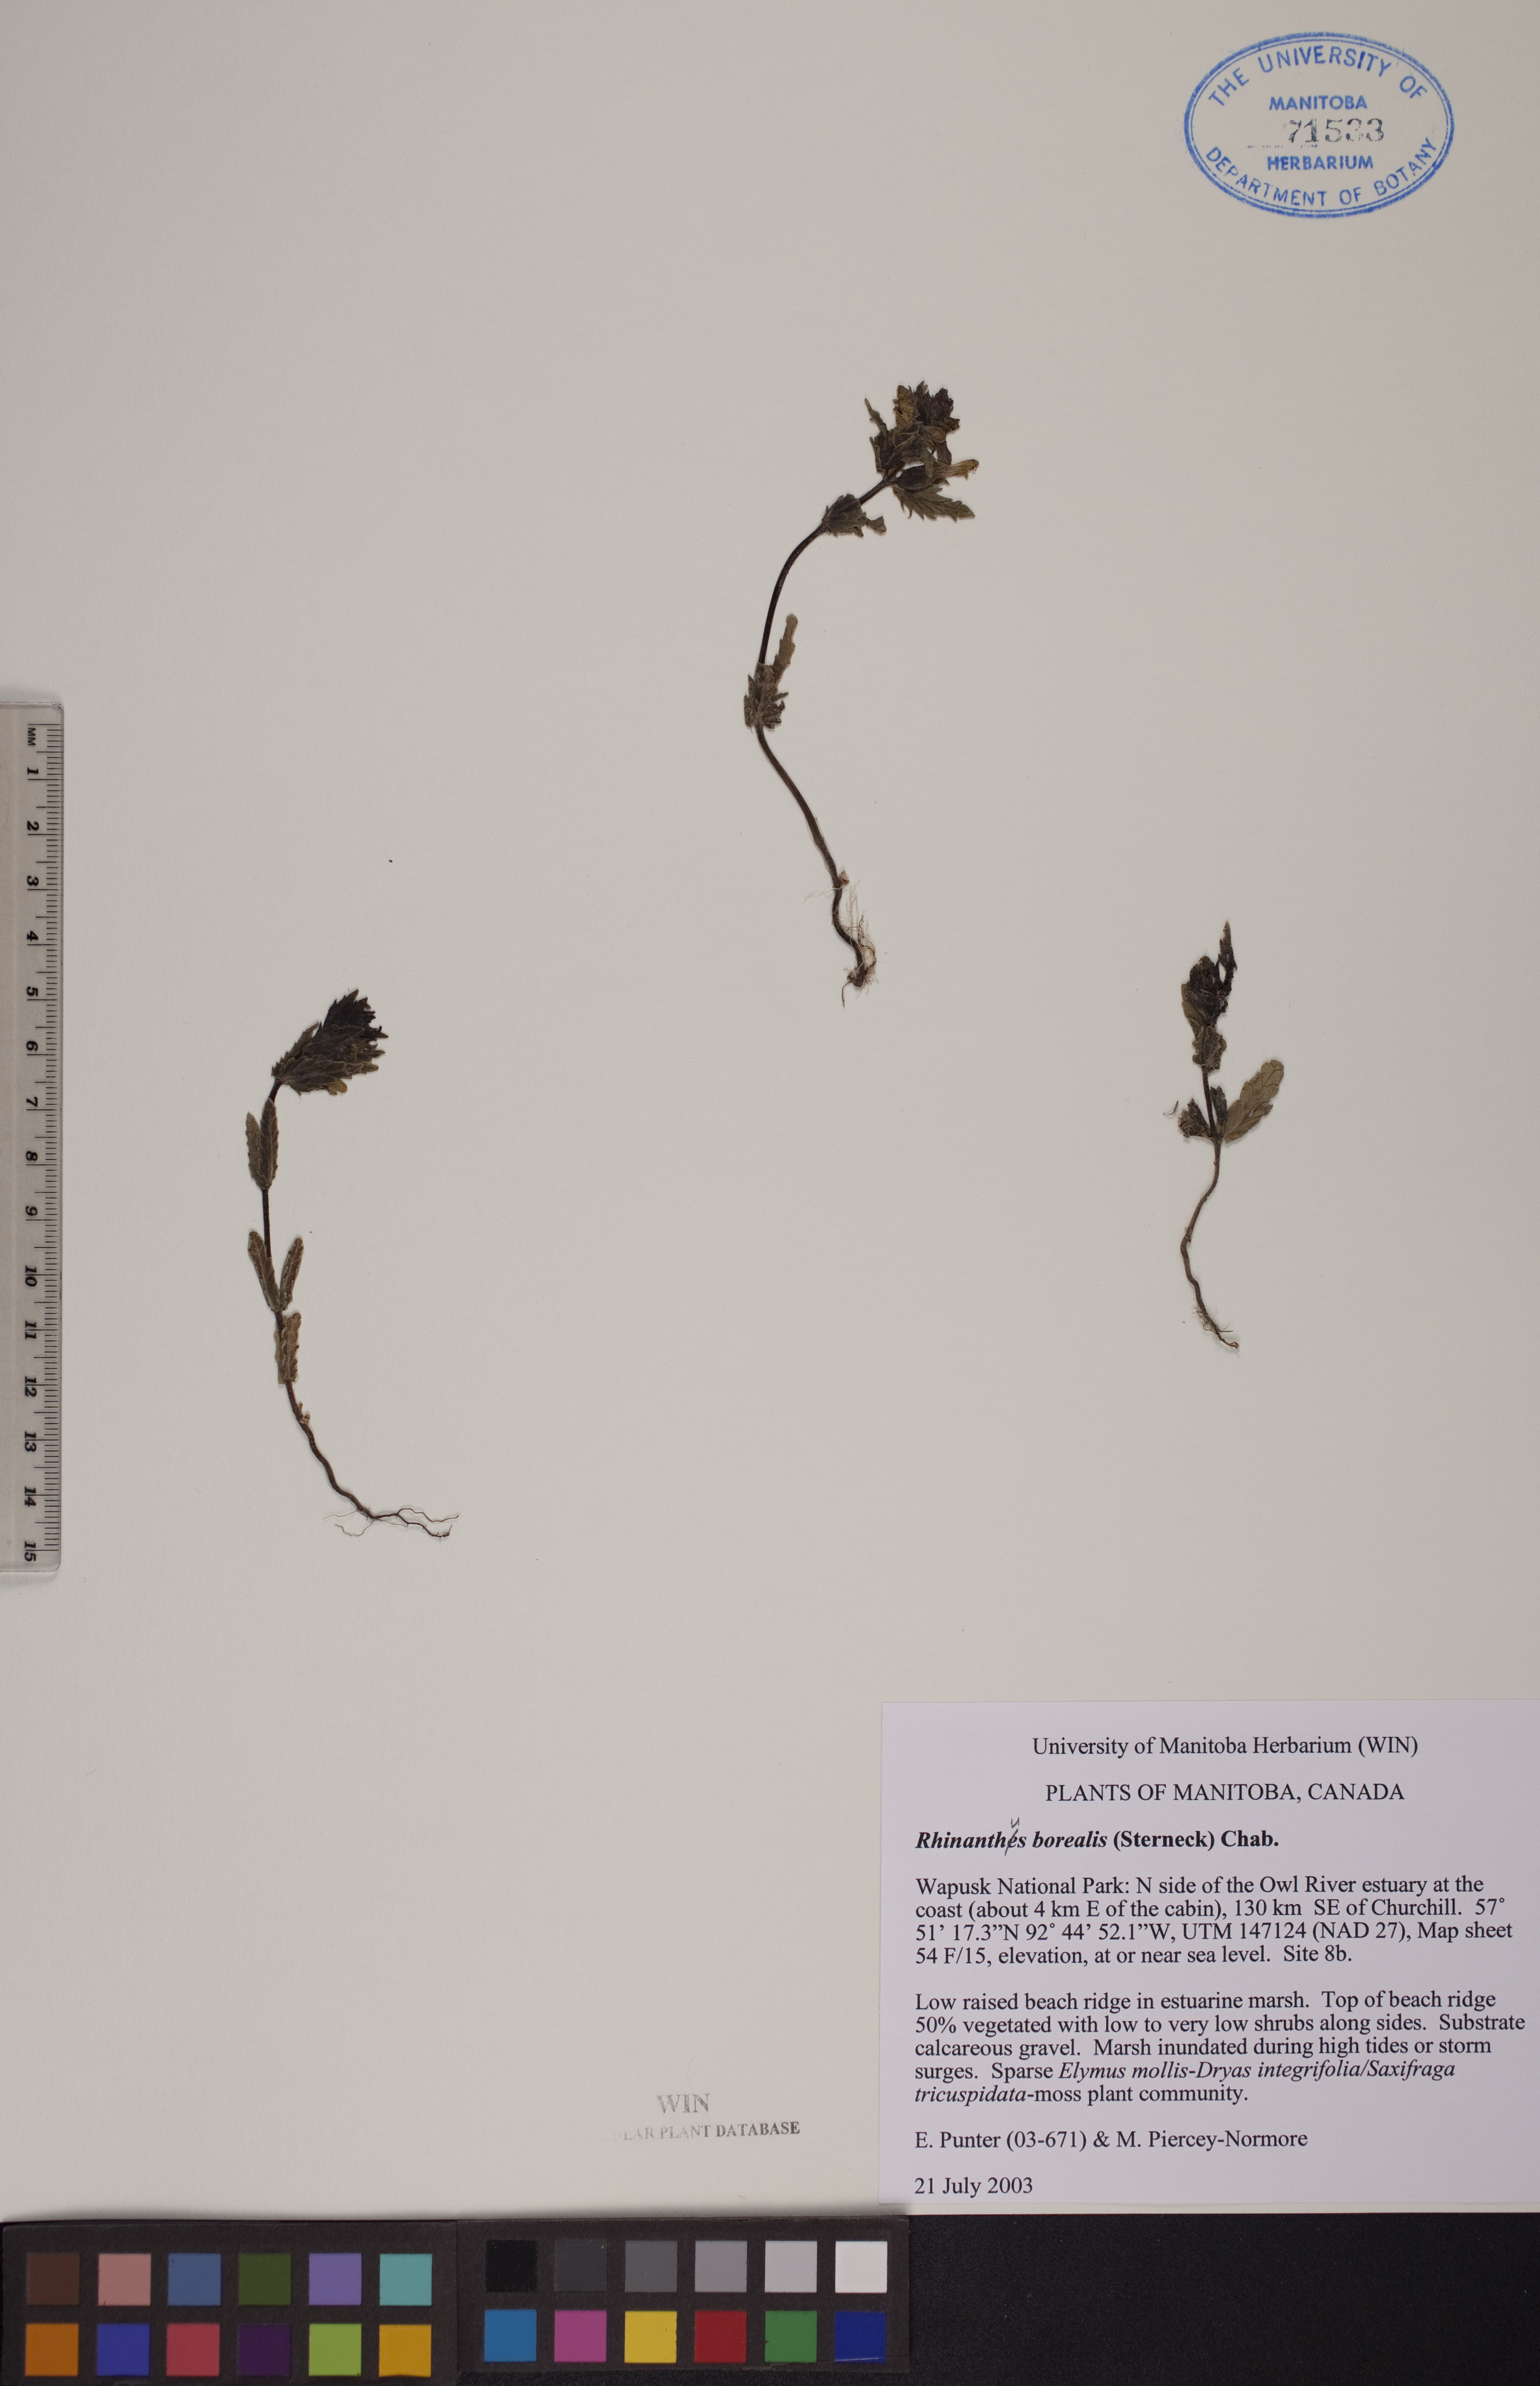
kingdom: Plantae
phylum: Tracheophyta
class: Magnoliopsida
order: Lamiales
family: Orobanchaceae
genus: Rhinanthus
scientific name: Rhinanthus groenlandicus
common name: Little yellow rattle
